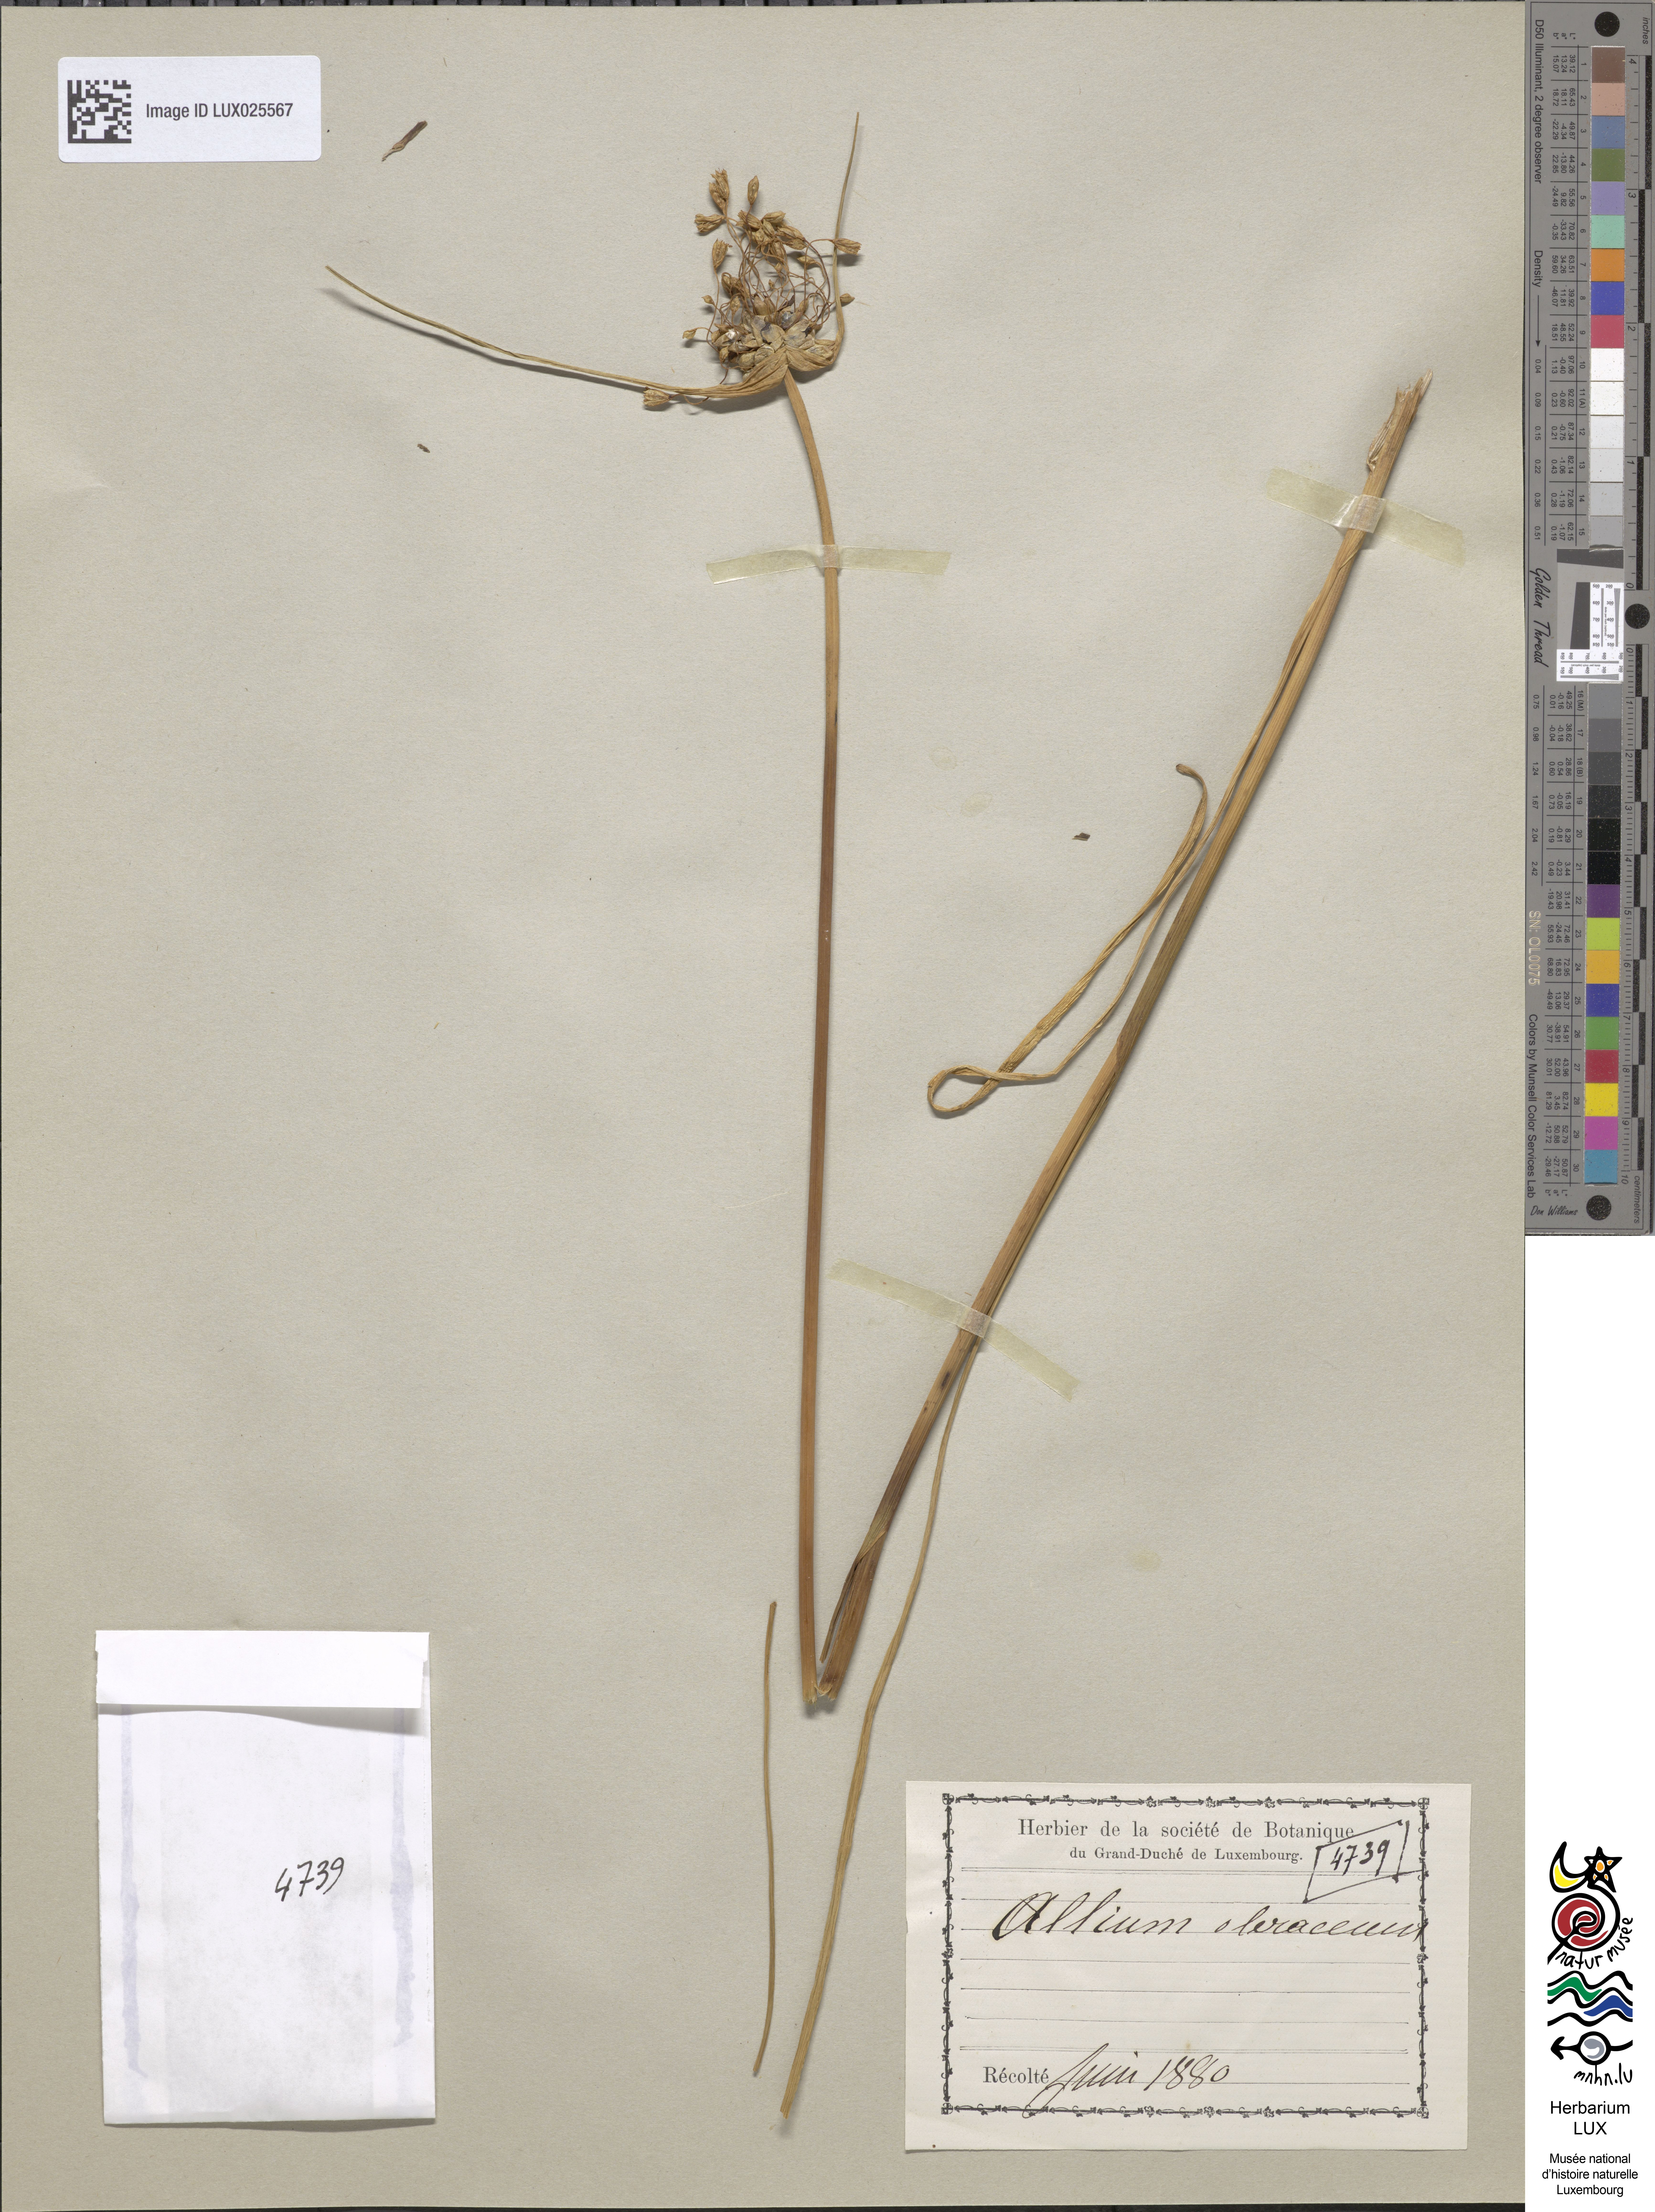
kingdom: Plantae
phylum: Tracheophyta
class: Liliopsida
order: Asparagales
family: Amaryllidaceae
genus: Allium
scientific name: Allium oleraceum
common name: Field garlic
